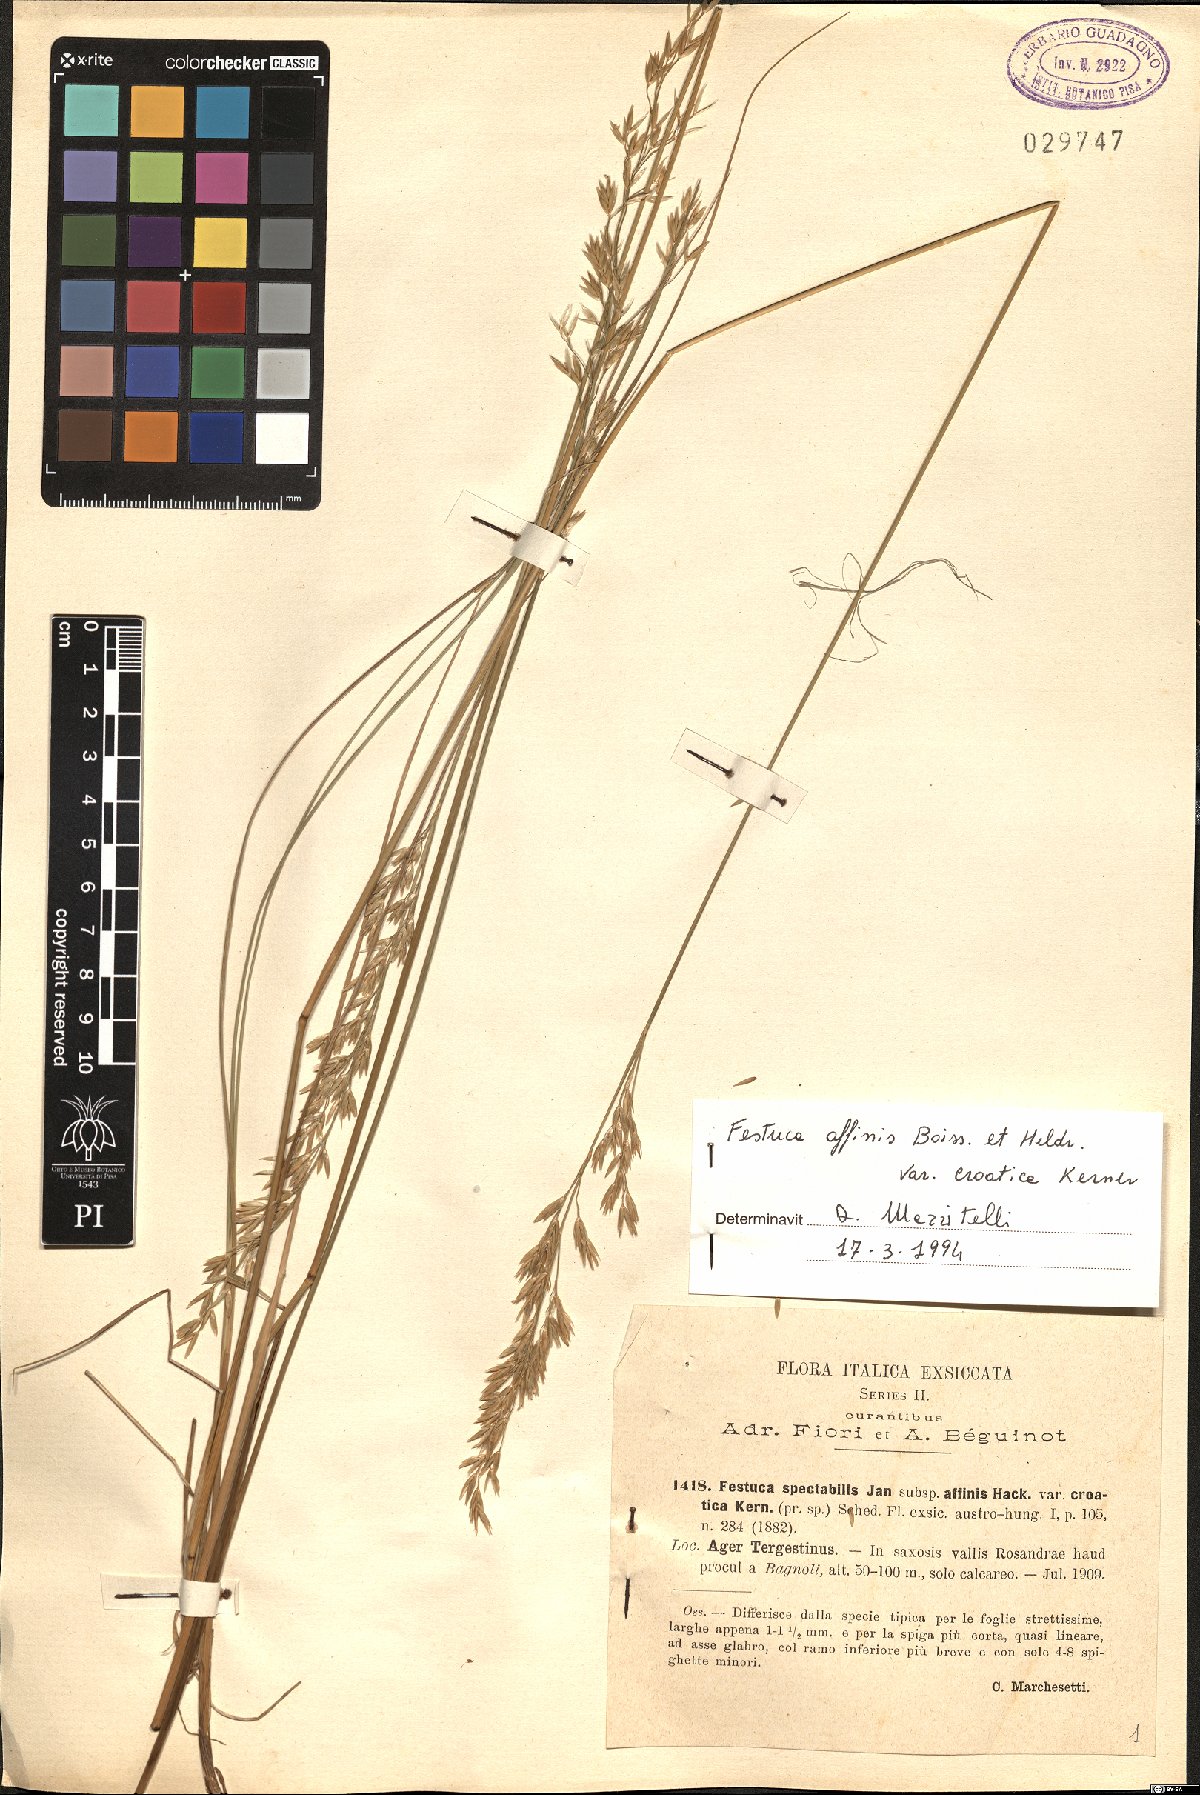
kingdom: Plantae
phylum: Tracheophyta
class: Liliopsida
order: Poales
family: Poaceae
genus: Festuca
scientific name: Festuca spectabilis
